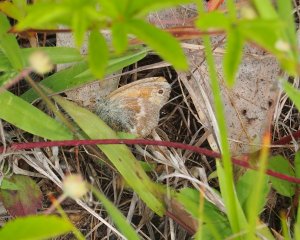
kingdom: Animalia
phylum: Arthropoda
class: Insecta
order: Lepidoptera
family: Nymphalidae
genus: Coenonympha
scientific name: Coenonympha tullia
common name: Large Heath
